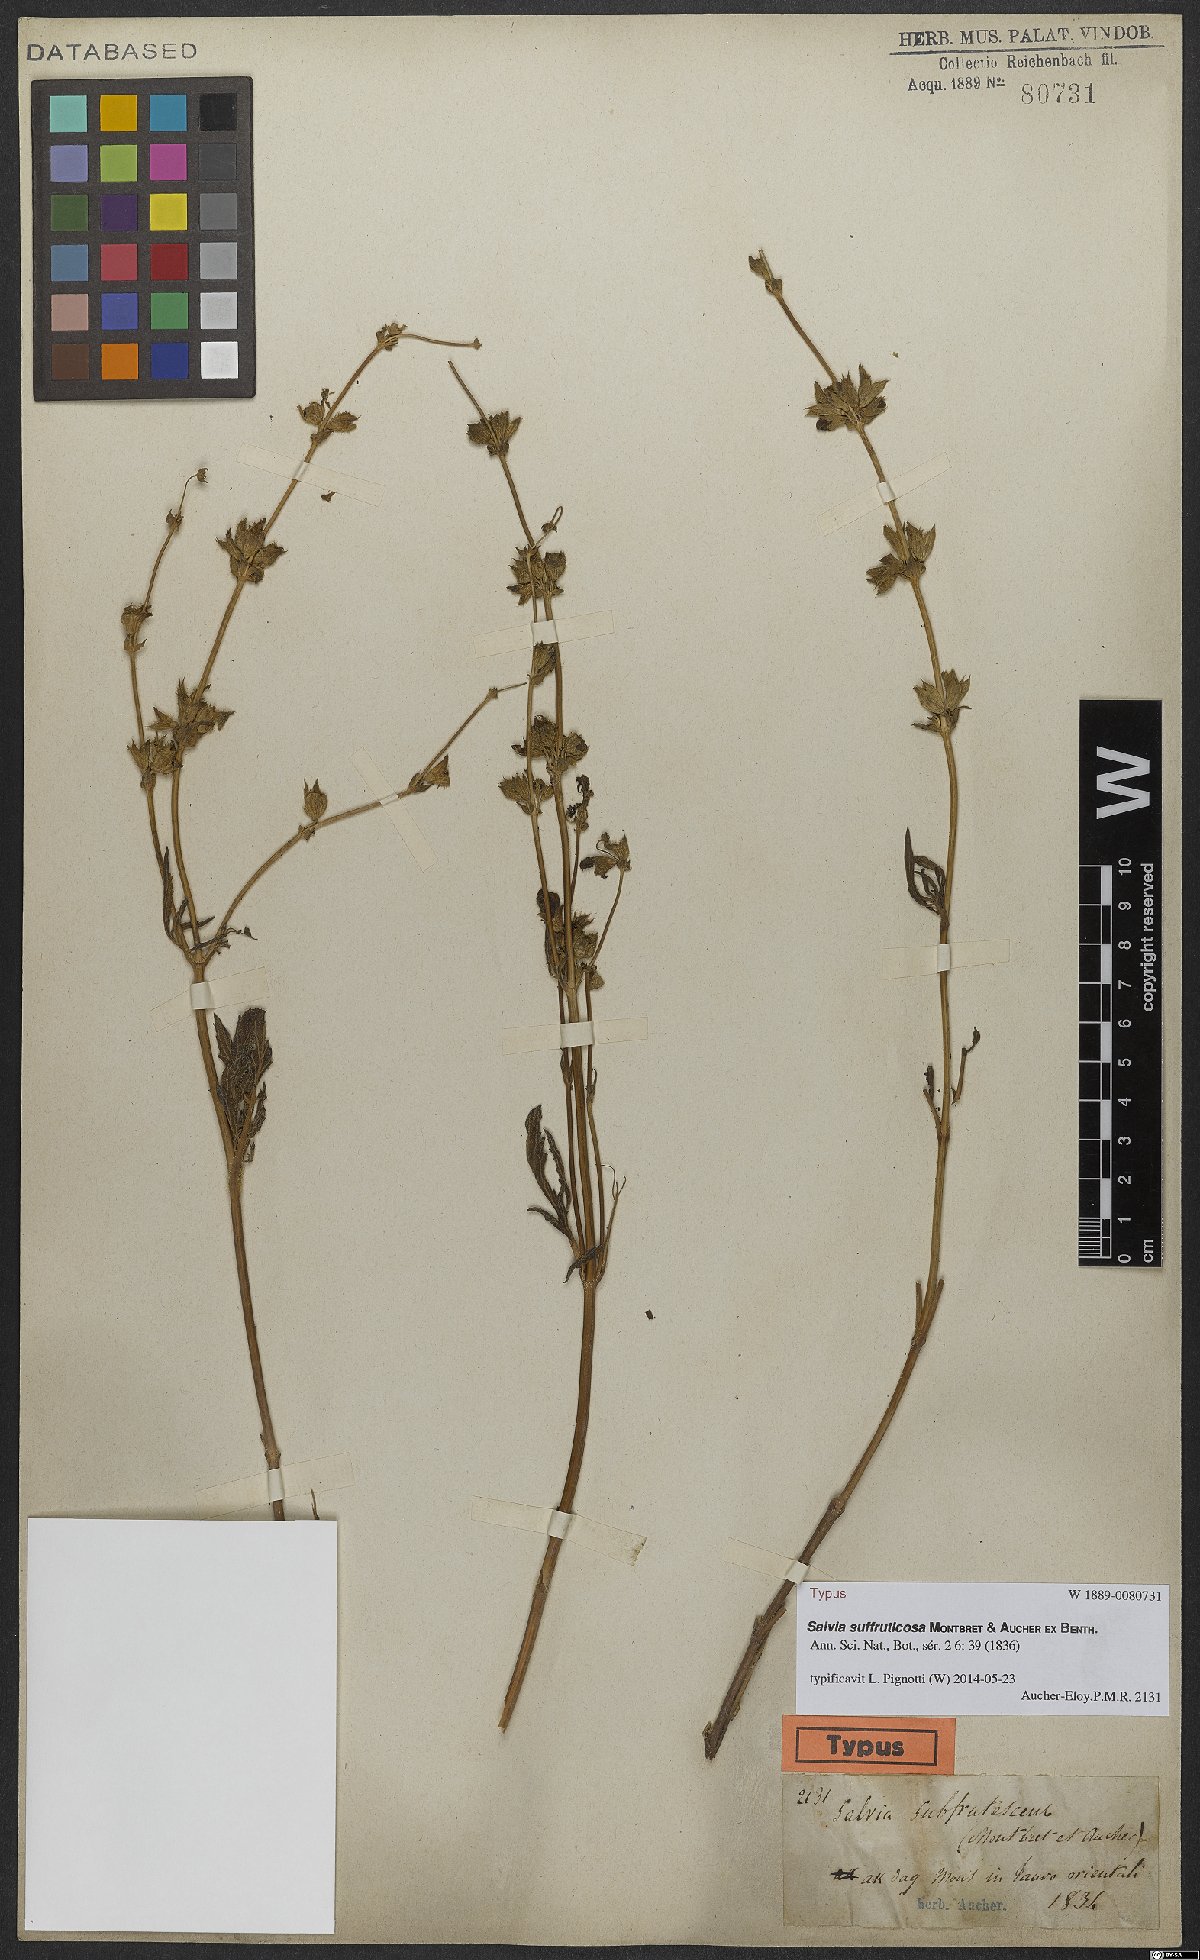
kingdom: Plantae
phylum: Tracheophyta
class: Magnoliopsida
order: Lamiales
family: Lamiaceae
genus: Salvia
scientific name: Salvia suffruticosa
